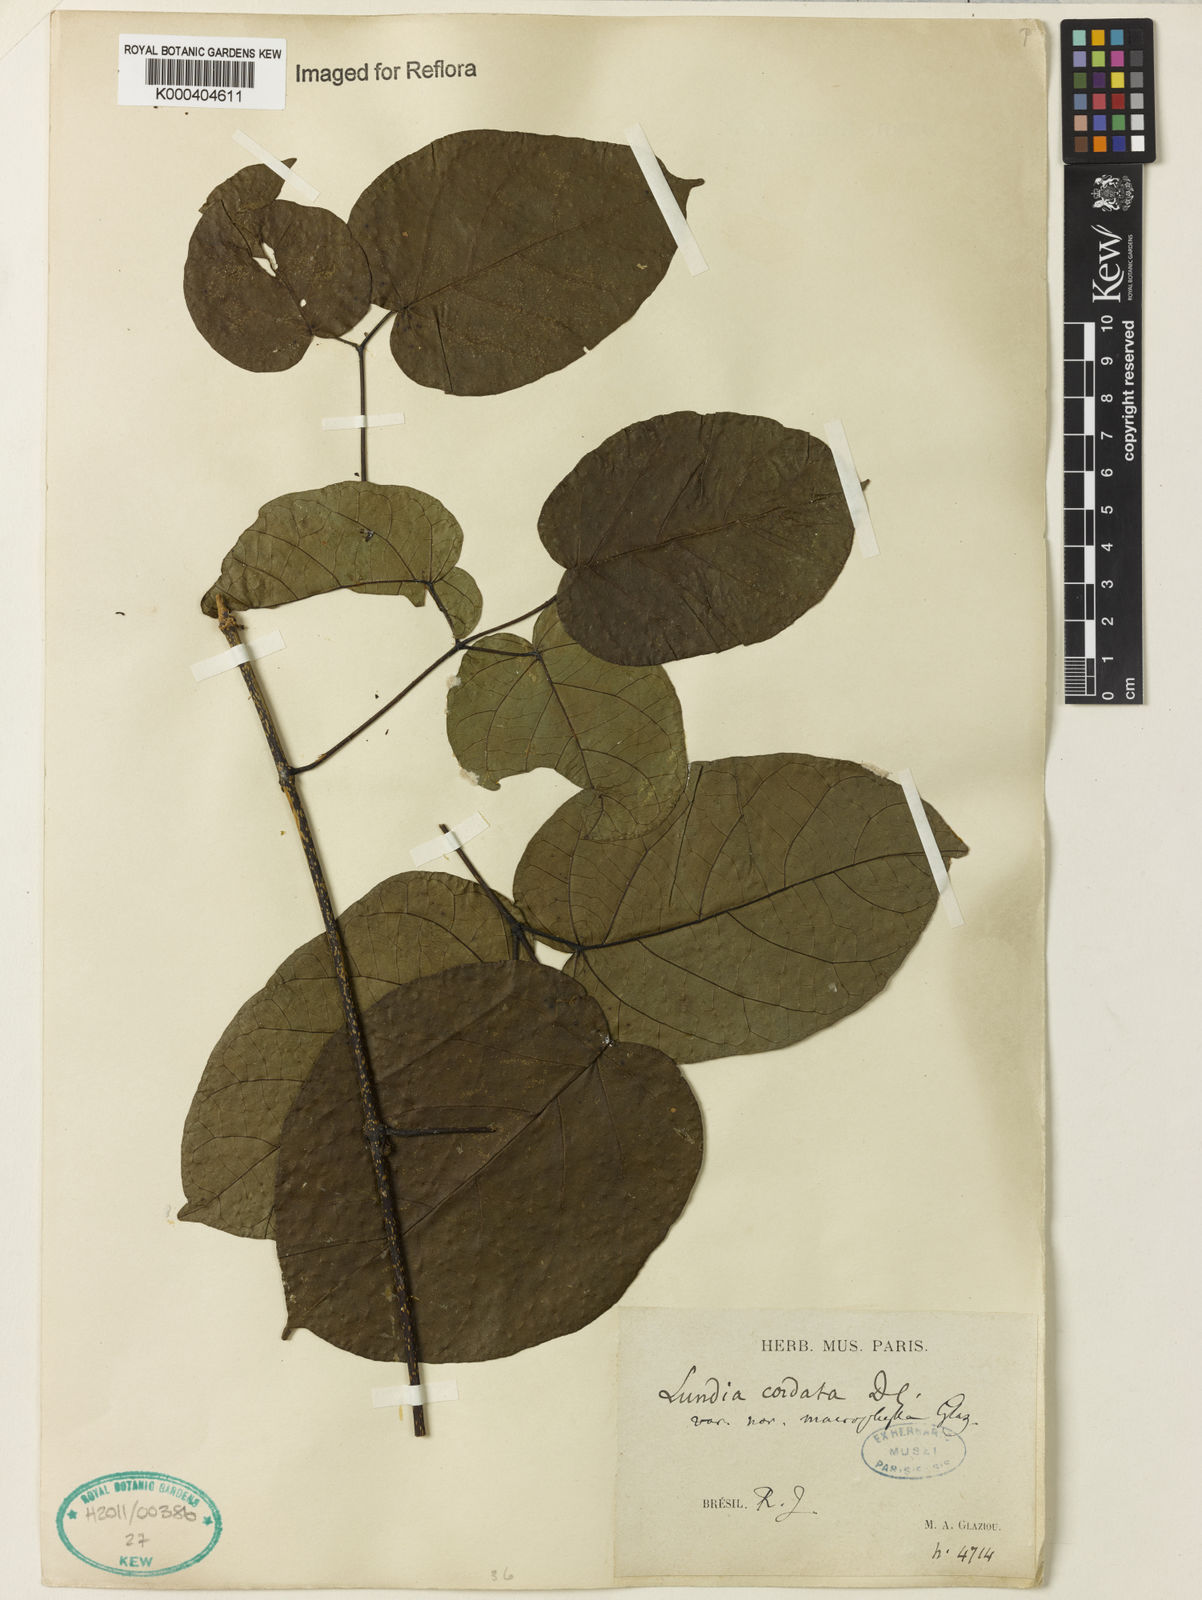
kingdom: Plantae
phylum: Tracheophyta
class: Magnoliopsida
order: Lamiales
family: Bignoniaceae
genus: Lundia
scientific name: Lundia corymbifera
